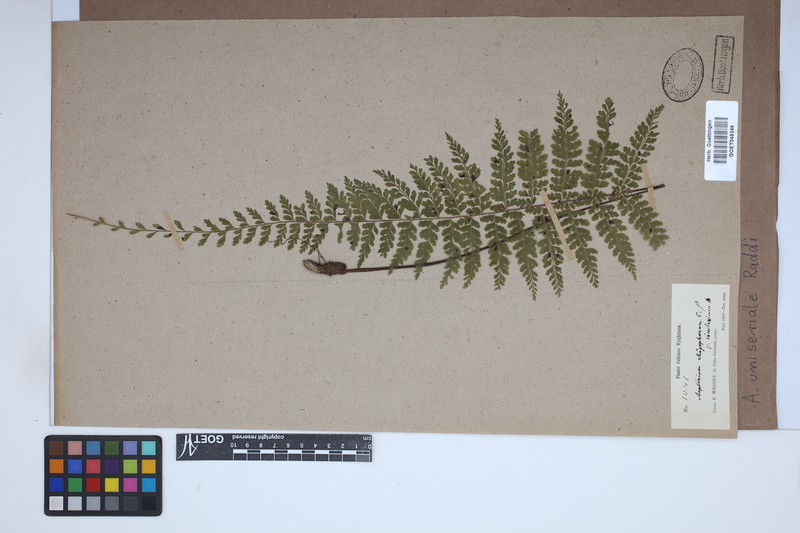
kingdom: Plantae
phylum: Tracheophyta
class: Polypodiopsida
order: Polypodiales
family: Aspleniaceae
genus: Asplenium
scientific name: Asplenium uniseriale
